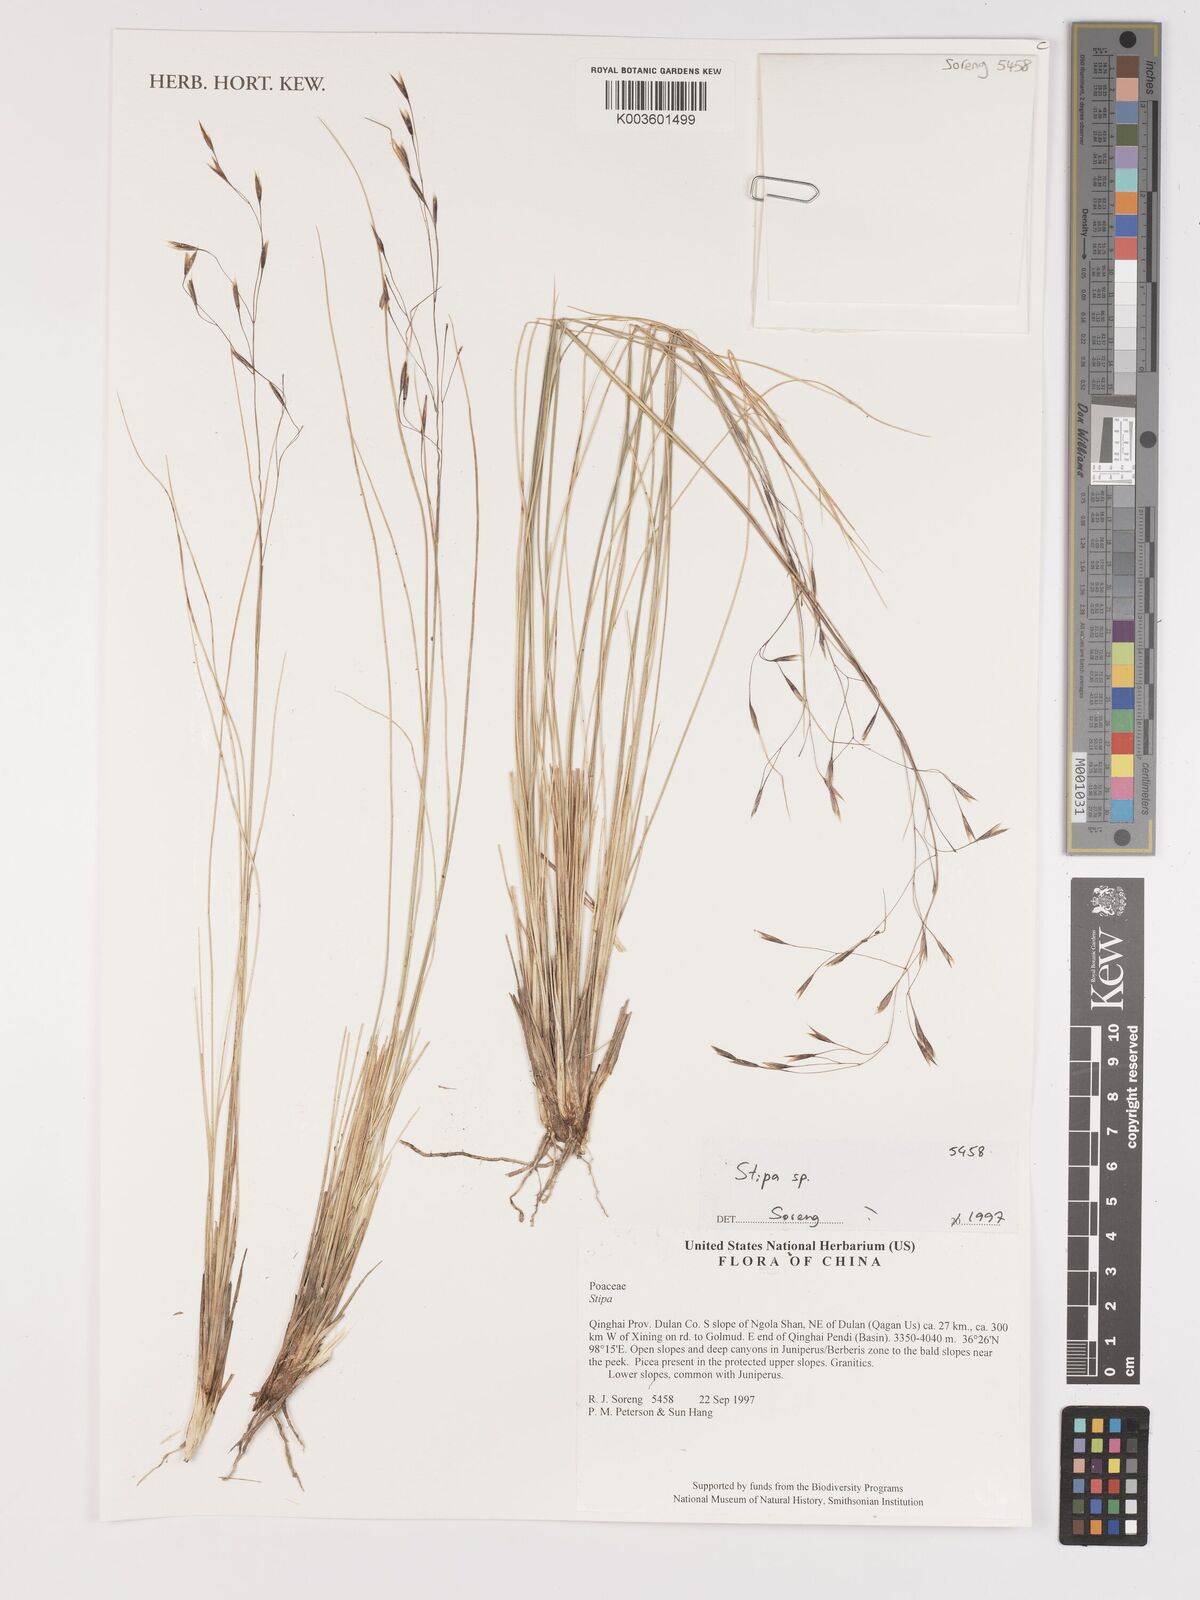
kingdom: Plantae
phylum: Tracheophyta
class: Liliopsida
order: Poales
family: Poaceae
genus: Stipa
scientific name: Stipa
